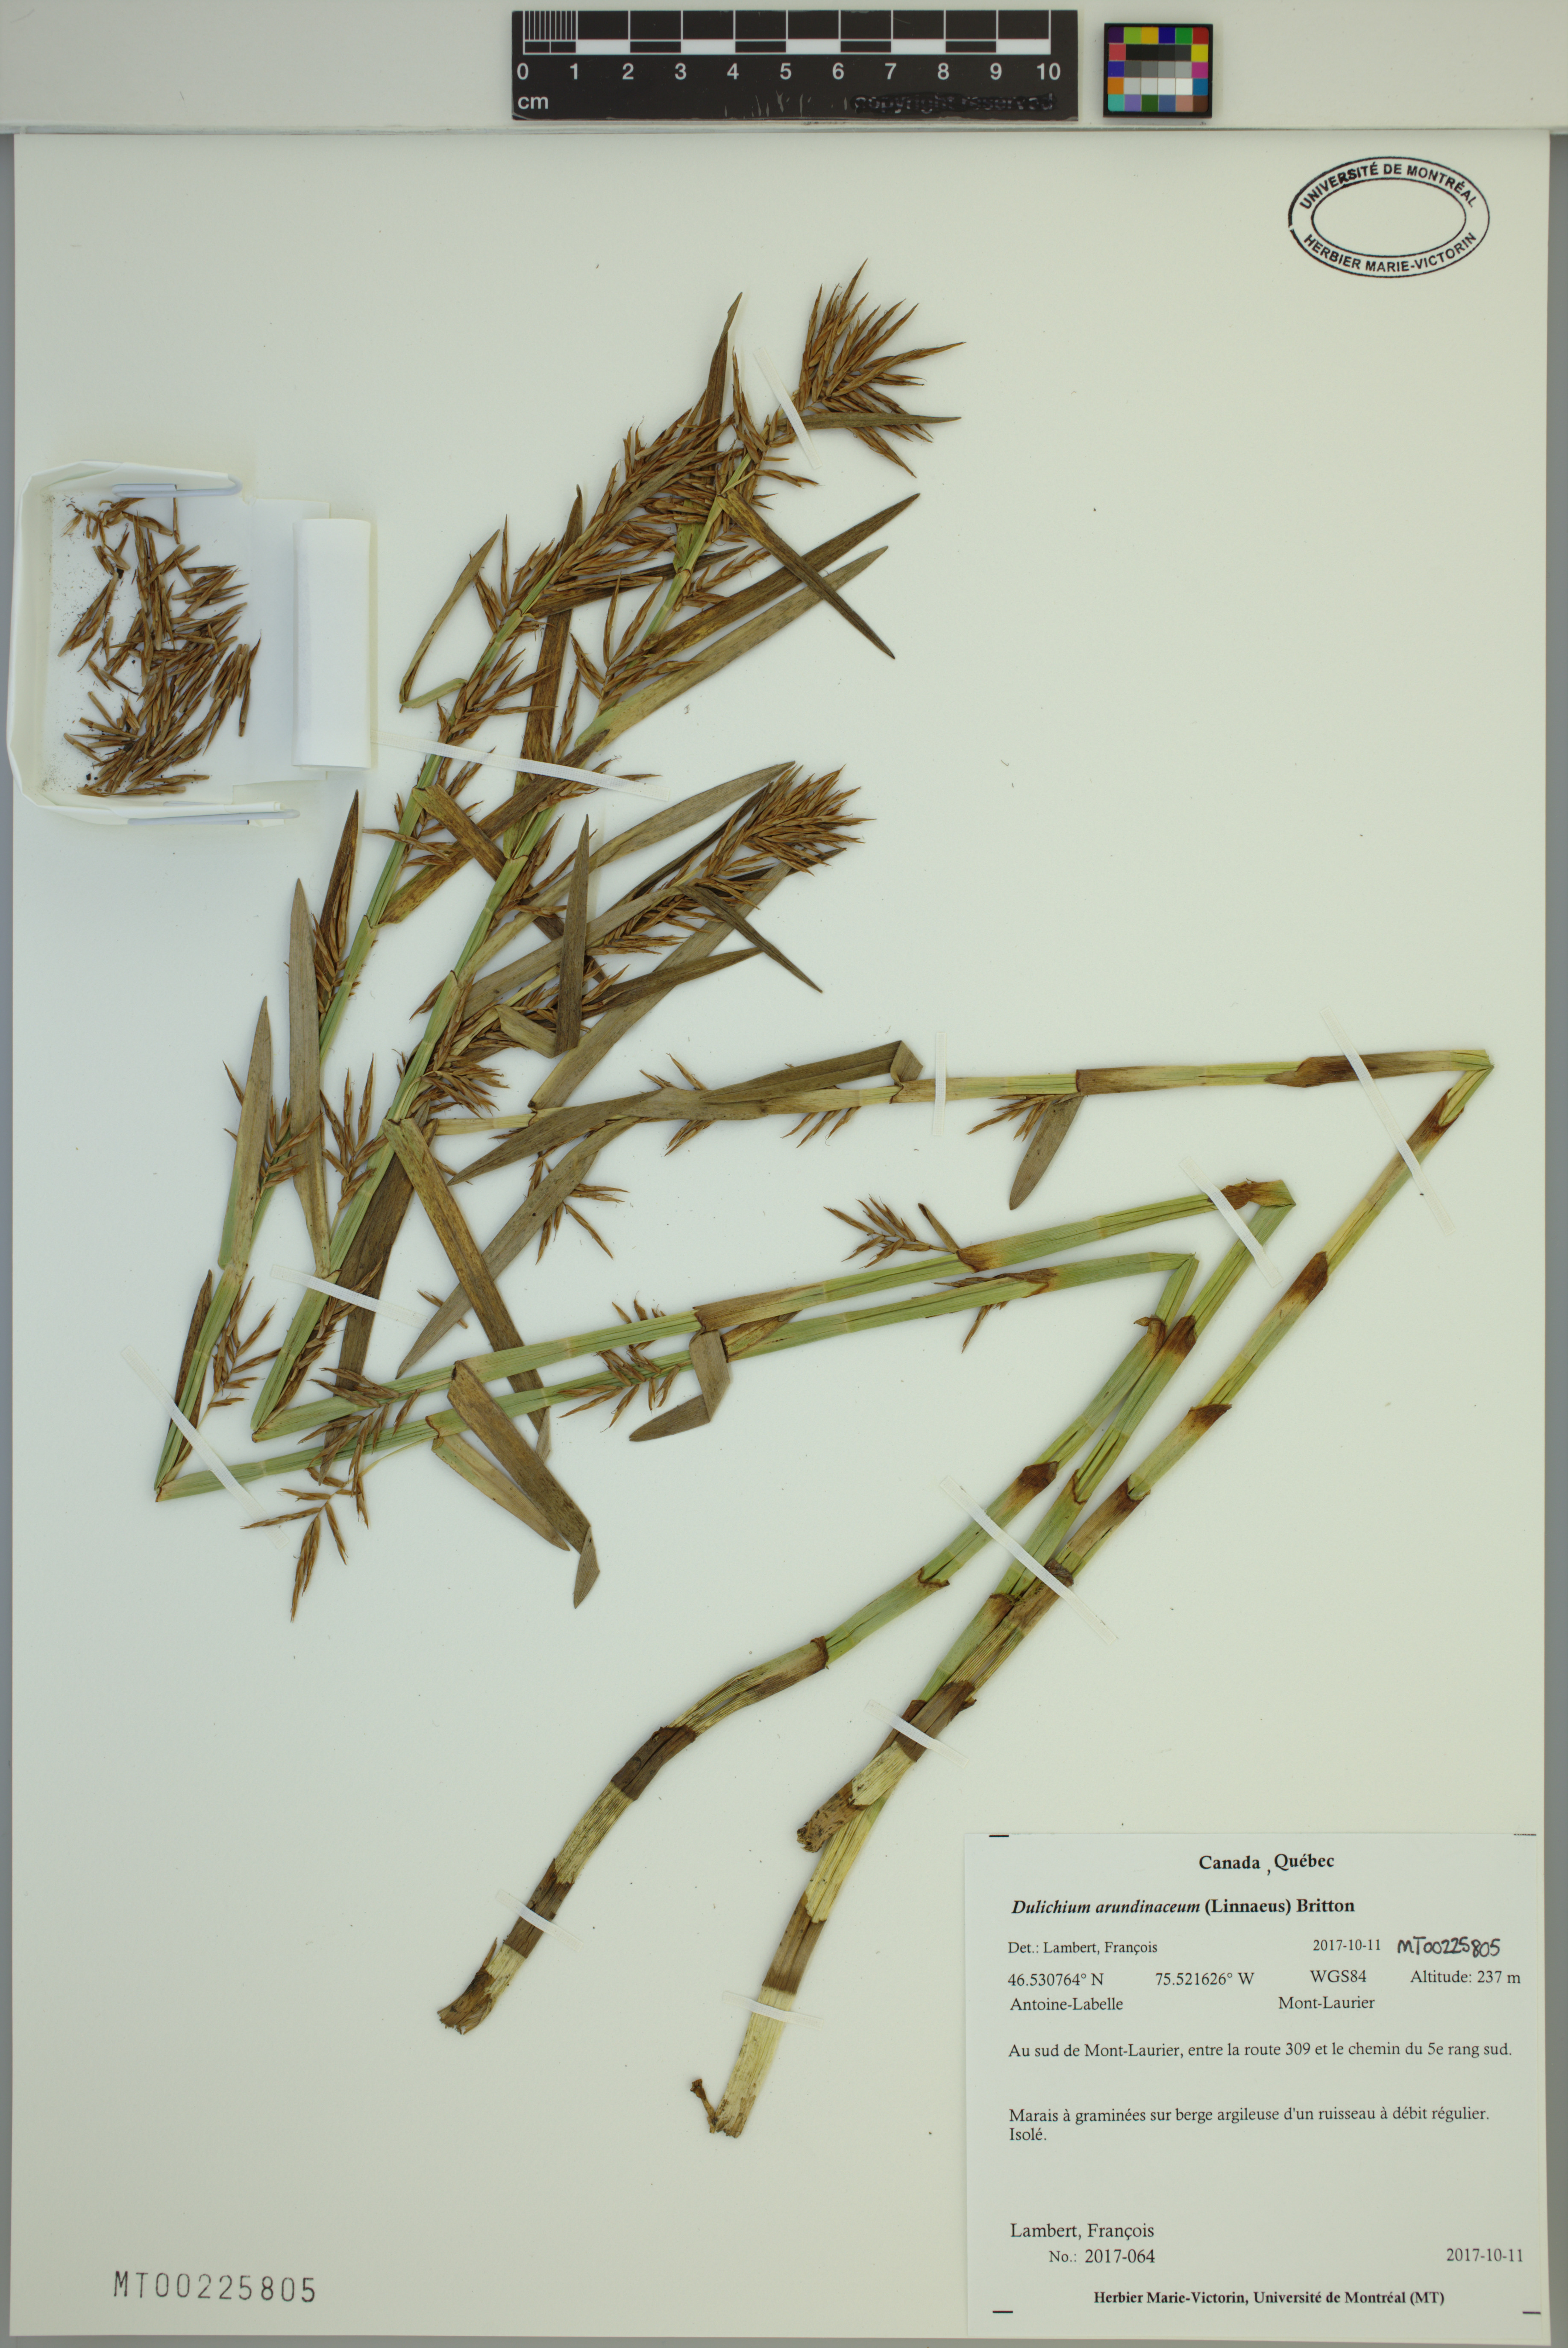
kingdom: Plantae
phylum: Tracheophyta
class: Liliopsida
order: Poales
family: Cyperaceae
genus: Dulichium
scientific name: Dulichium arundinaceum
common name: Three-way sedge
